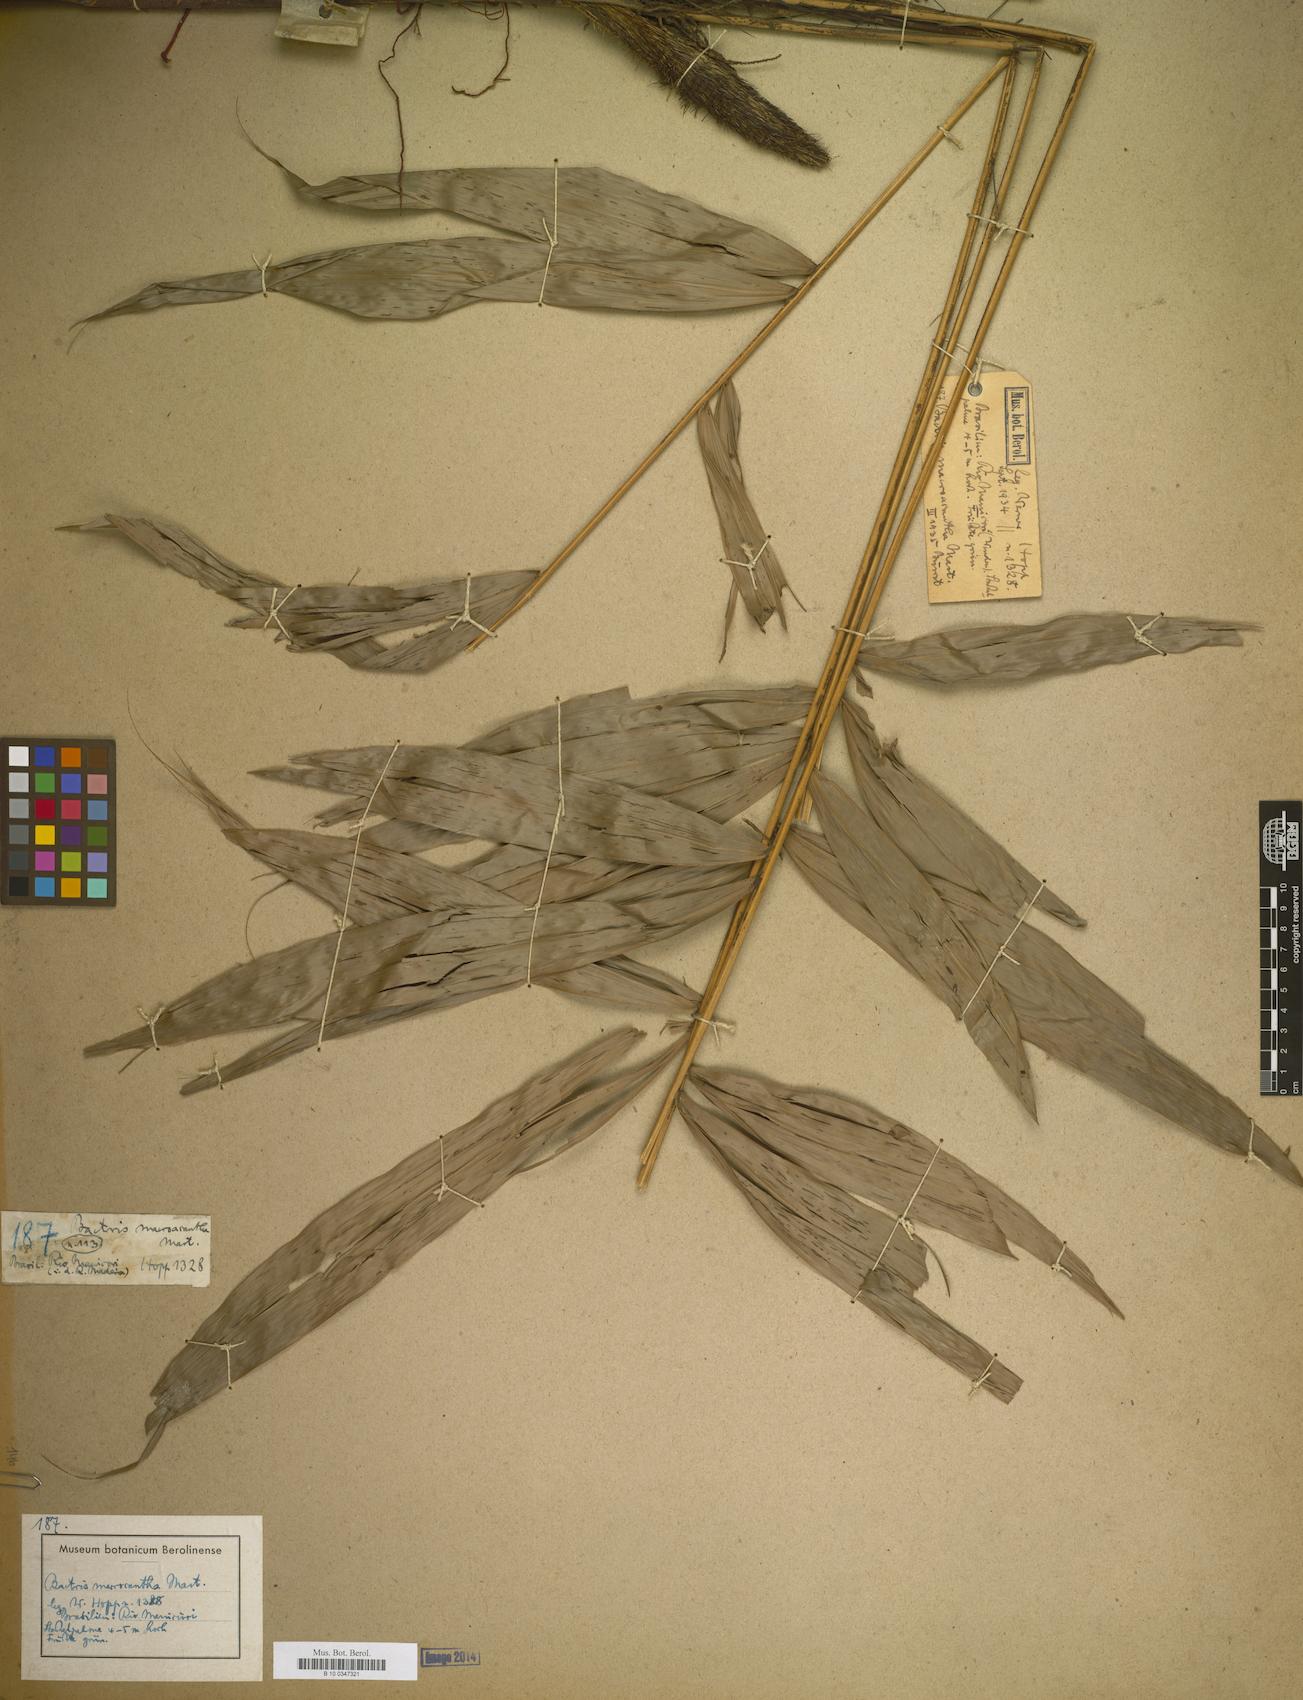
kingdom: Plantae
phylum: Tracheophyta
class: Liliopsida
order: Arecales
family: Arecaceae
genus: Bactris
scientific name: Bactris macroacantha
